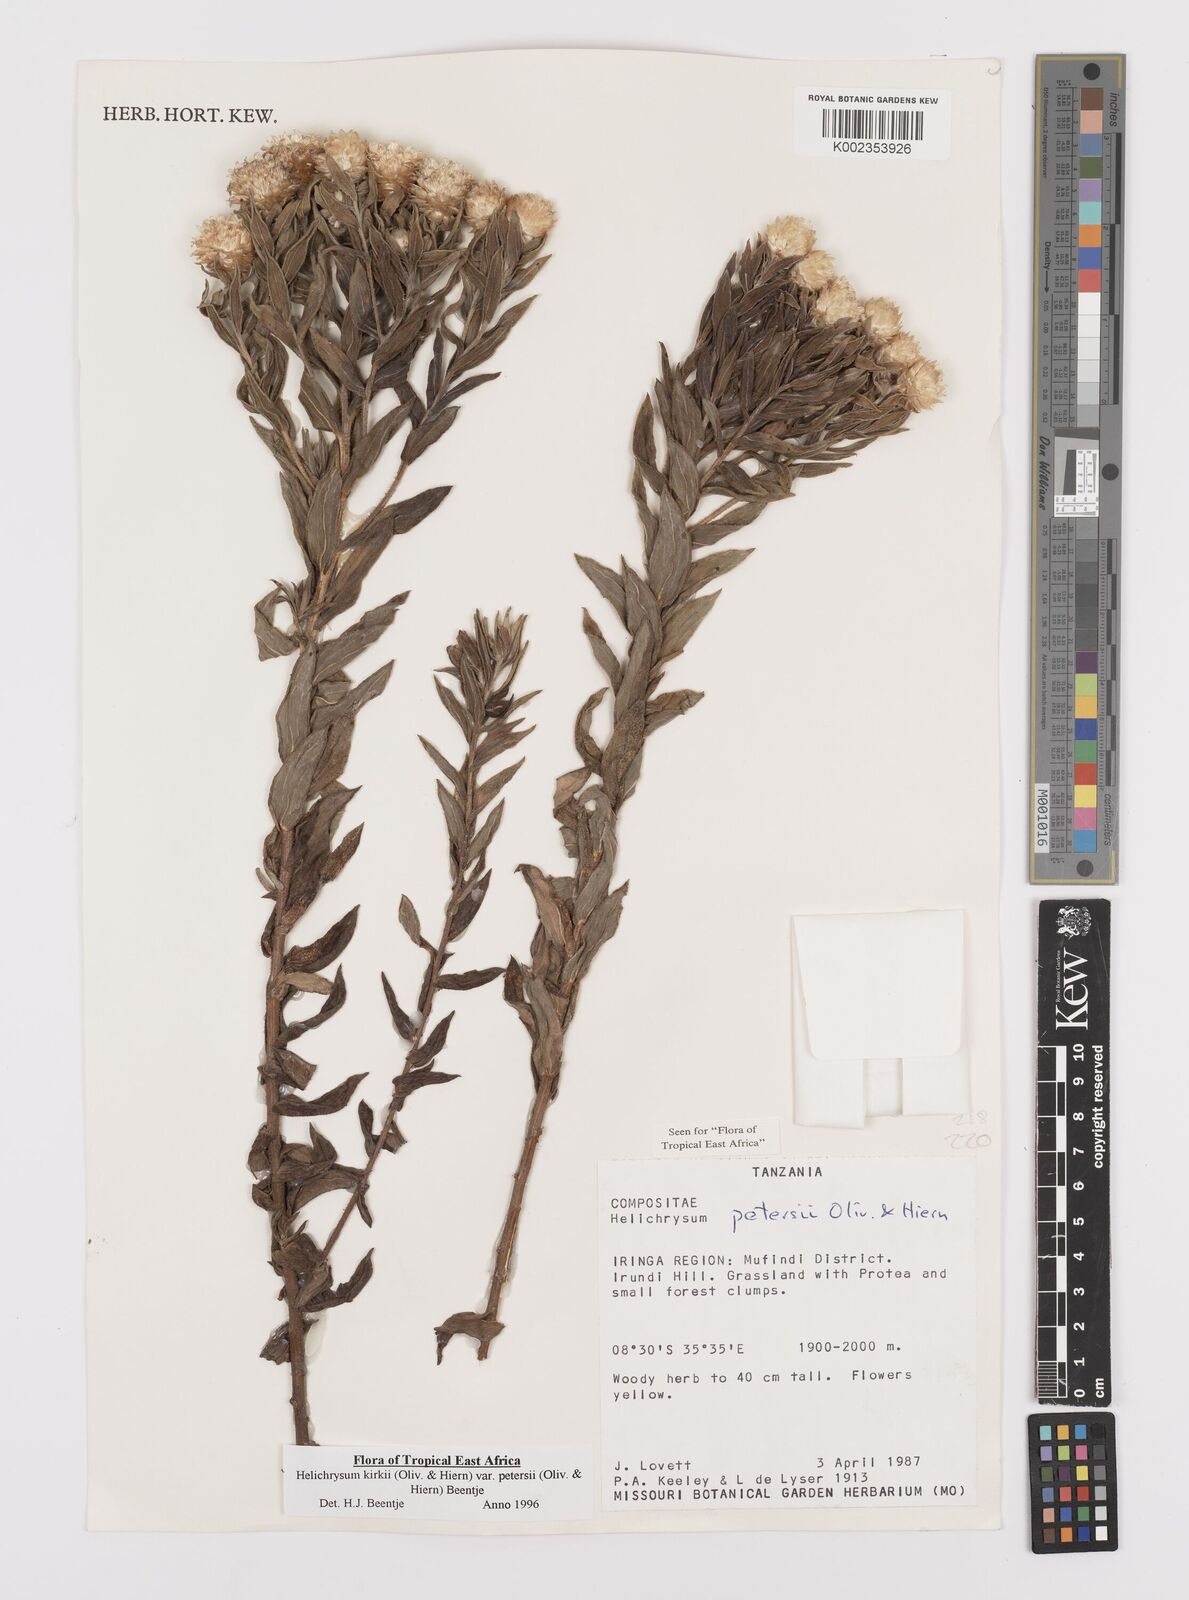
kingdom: Plantae
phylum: Tracheophyta
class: Magnoliopsida
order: Asterales
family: Asteraceae
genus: Helichrysum
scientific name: Helichrysum kirkii
